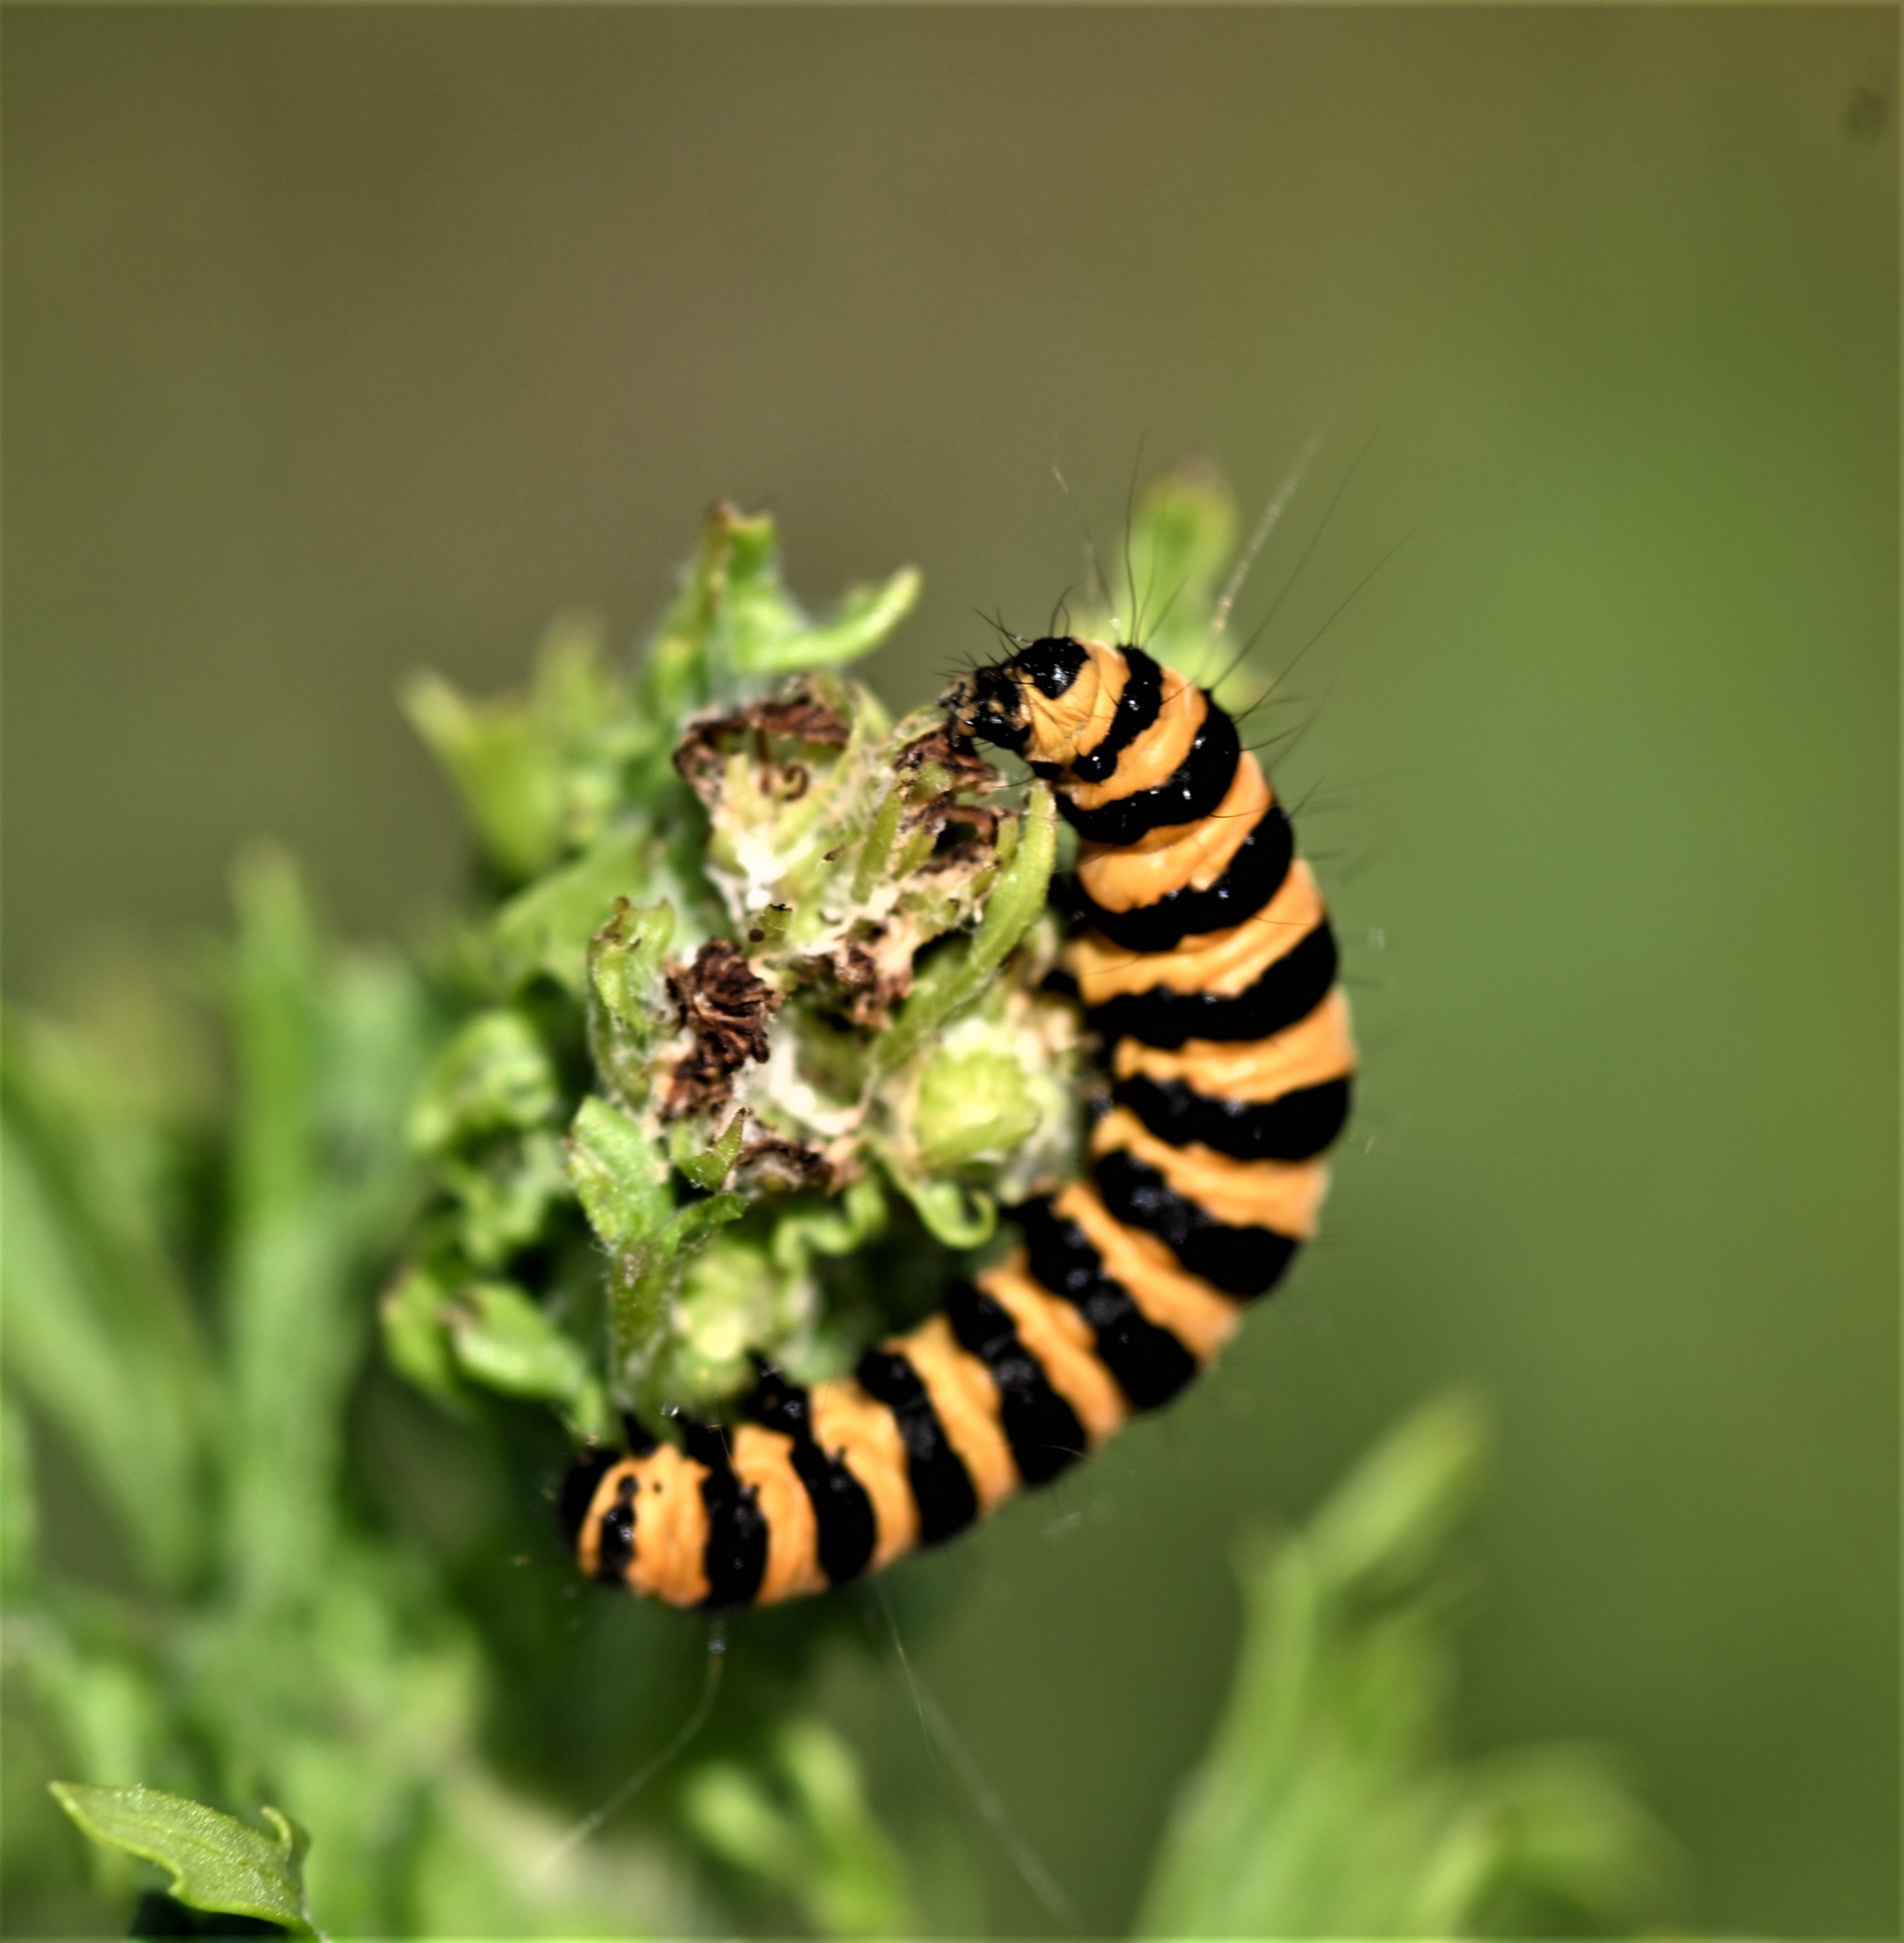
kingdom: Animalia
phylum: Arthropoda
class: Insecta
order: Lepidoptera
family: Erebidae
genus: Tyria
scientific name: Tyria jacobaeae
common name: Blodplet
